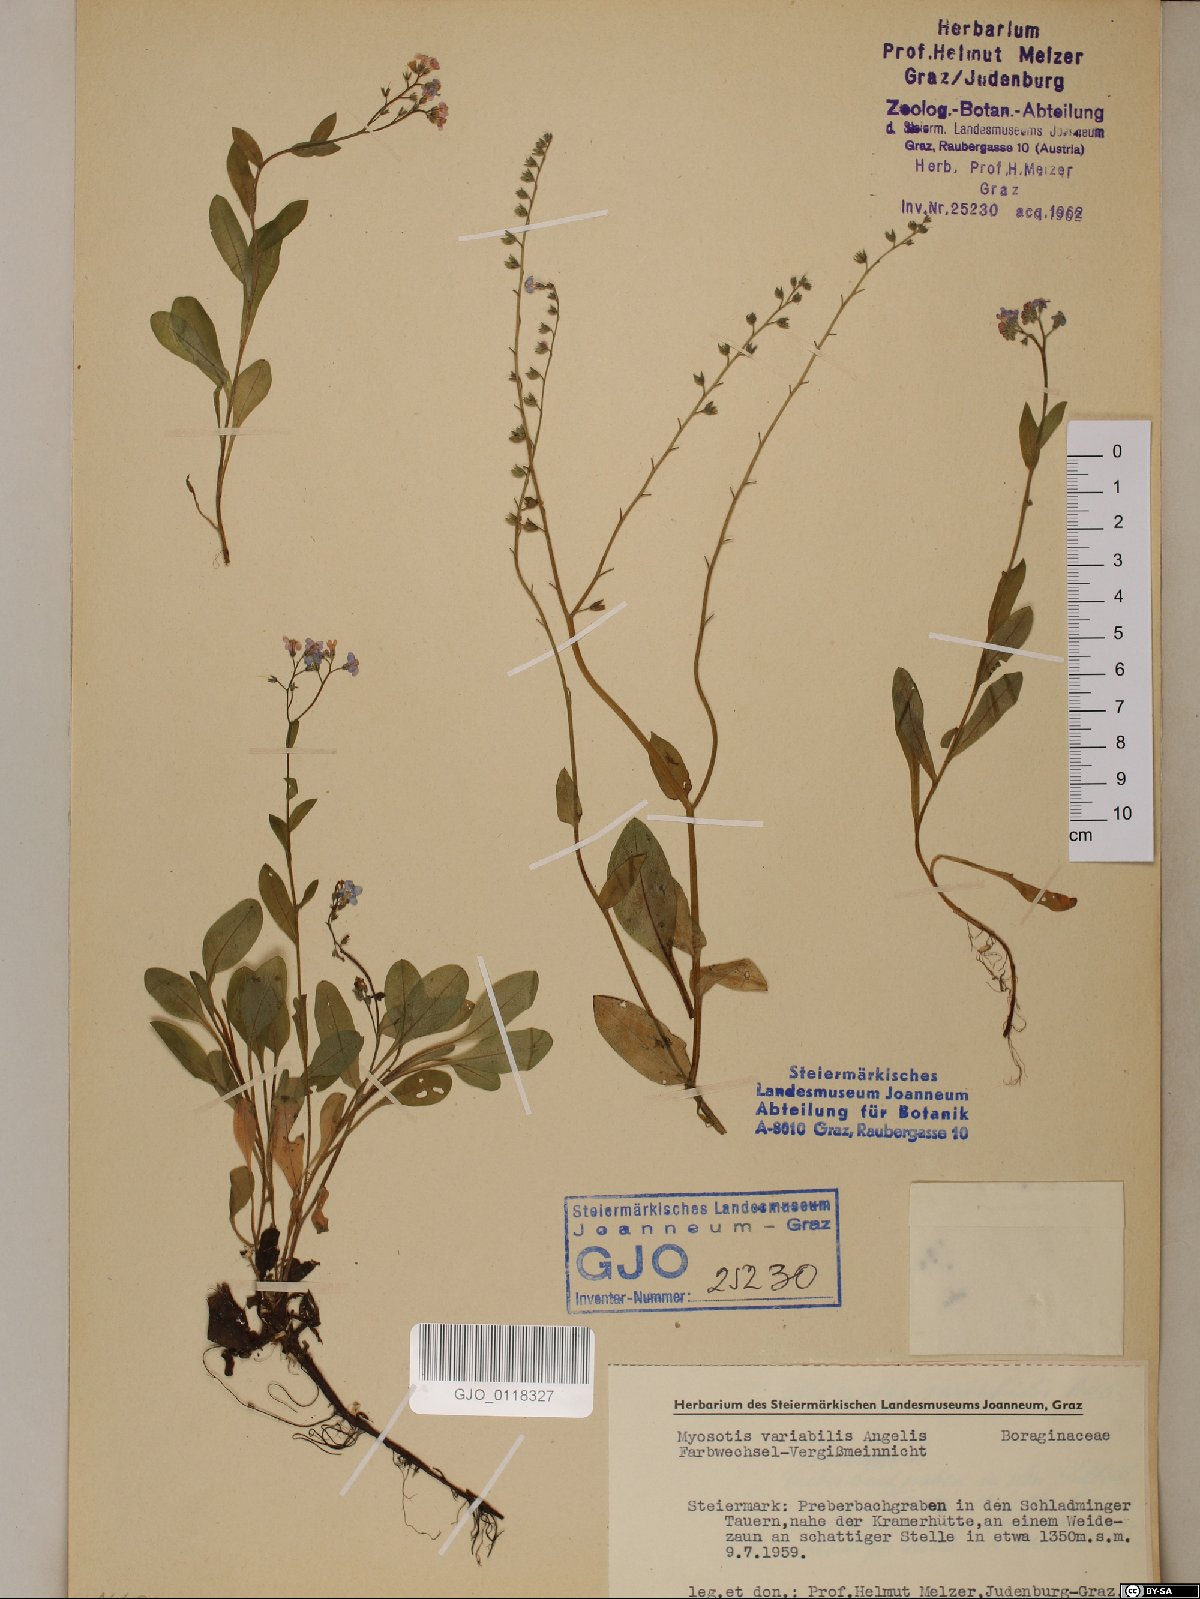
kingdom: Plantae
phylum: Tracheophyta
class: Magnoliopsida
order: Boraginales
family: Boraginaceae
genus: Myosotis
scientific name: Myosotis decumbens
